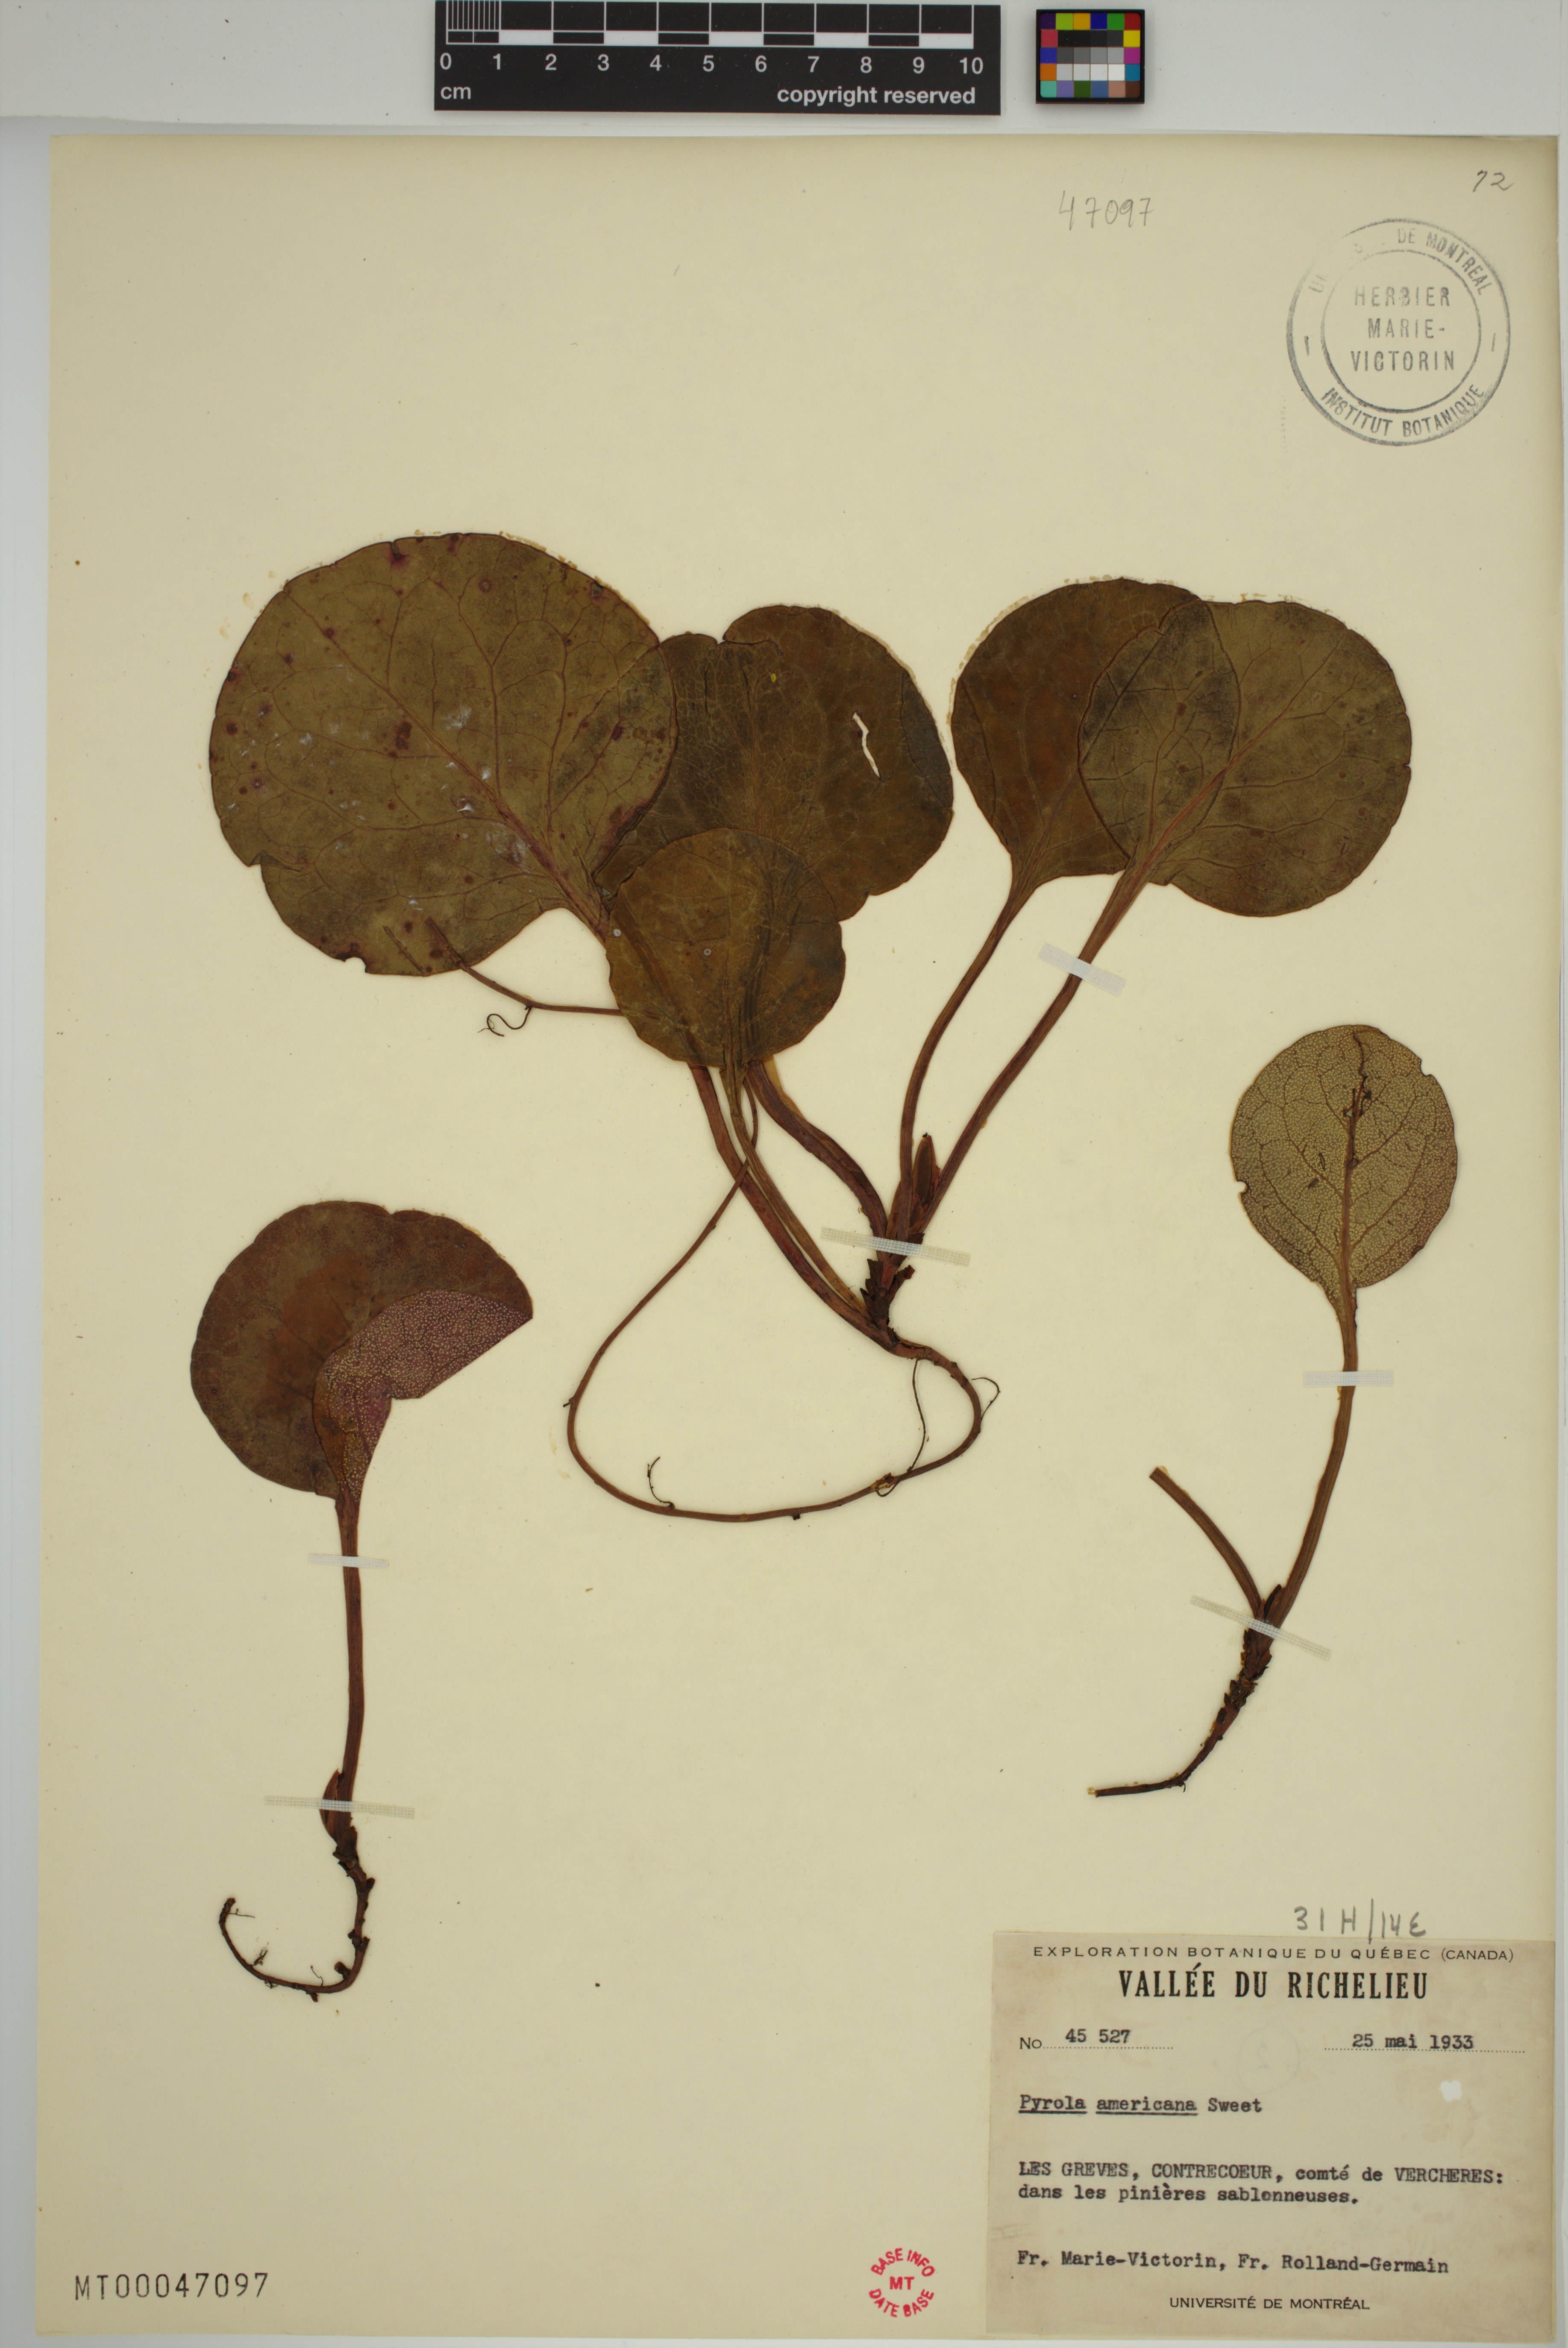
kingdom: Plantae
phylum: Tracheophyta
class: Magnoliopsida
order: Ericales
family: Ericaceae
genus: Pyrola
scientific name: Pyrola americana
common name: American wintergreen
